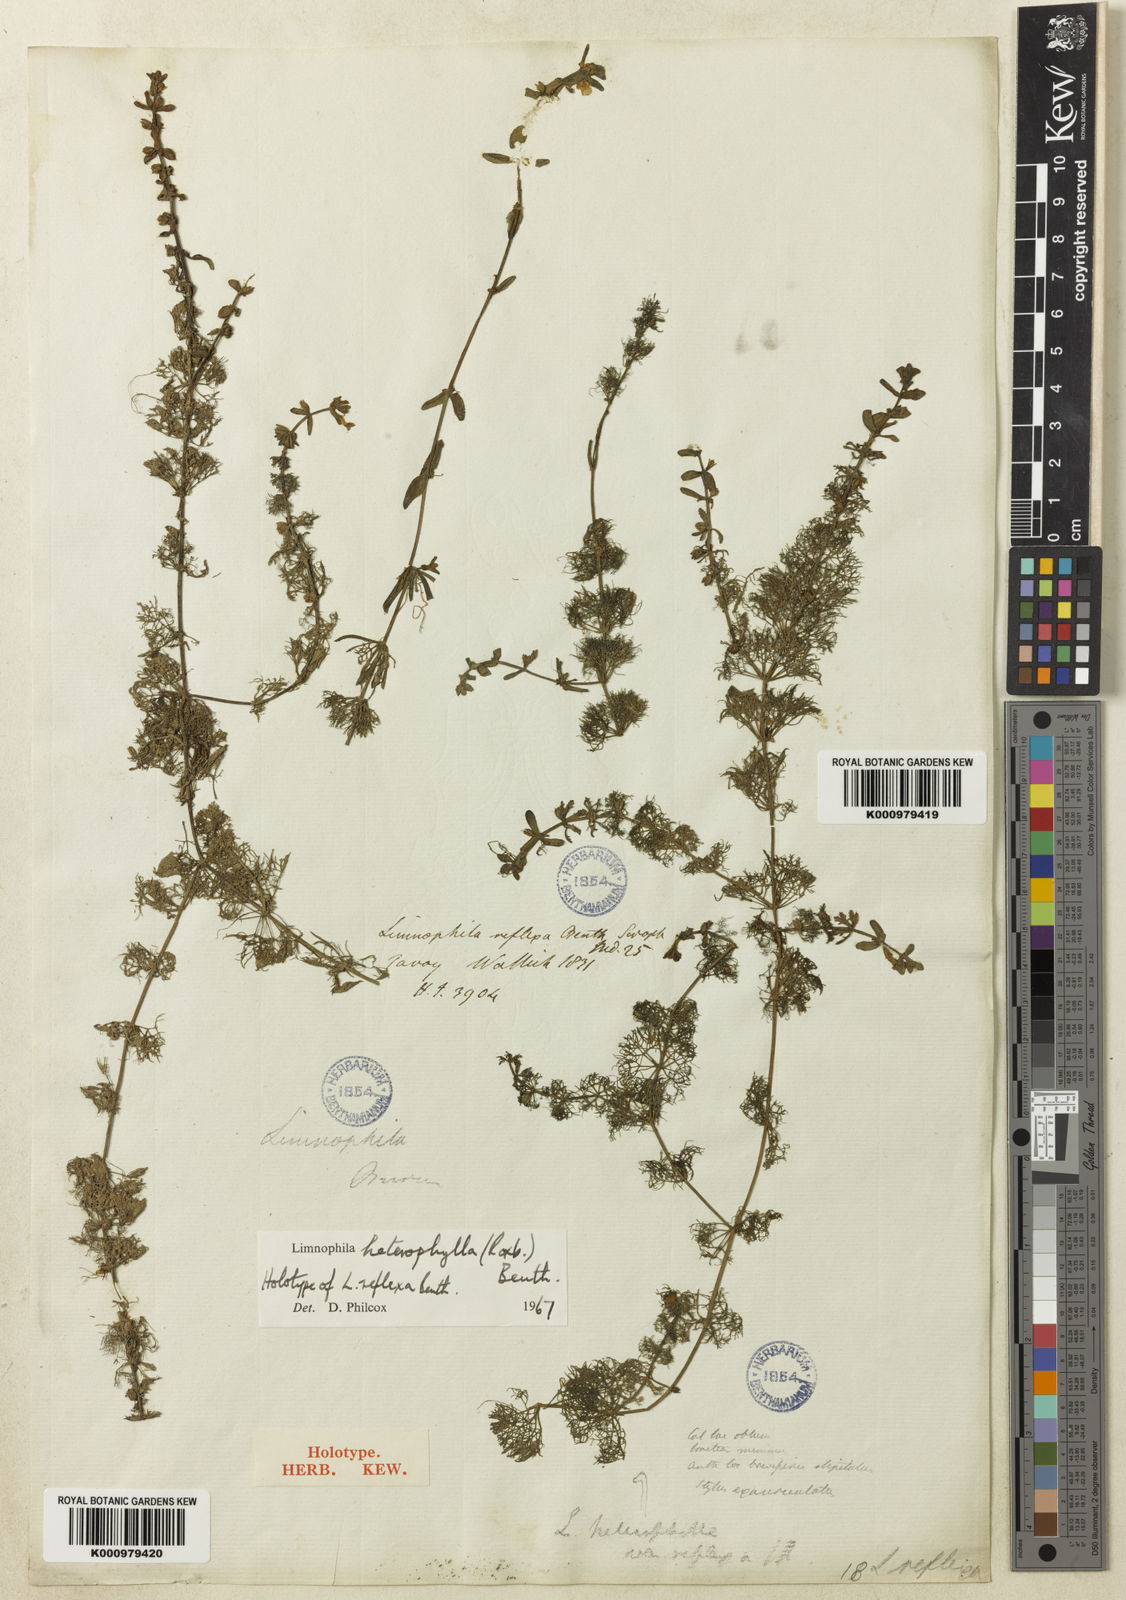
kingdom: Plantae
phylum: Tracheophyta
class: Magnoliopsida
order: Lamiales
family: Plantaginaceae
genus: Limnophila
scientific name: Limnophila heterophylla
